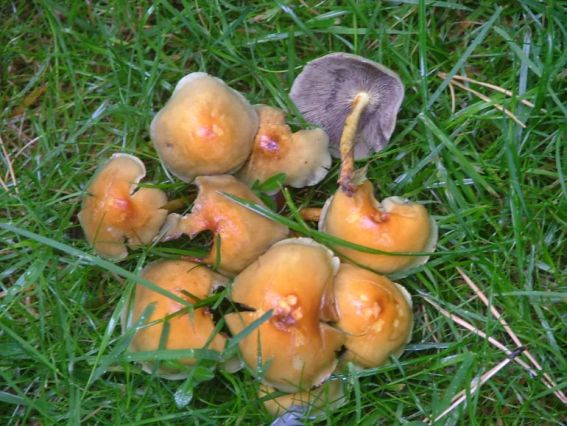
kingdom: Fungi
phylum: Basidiomycota
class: Agaricomycetes
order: Agaricales
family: Strophariaceae
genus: Hypholoma
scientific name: Hypholoma fasciculare
